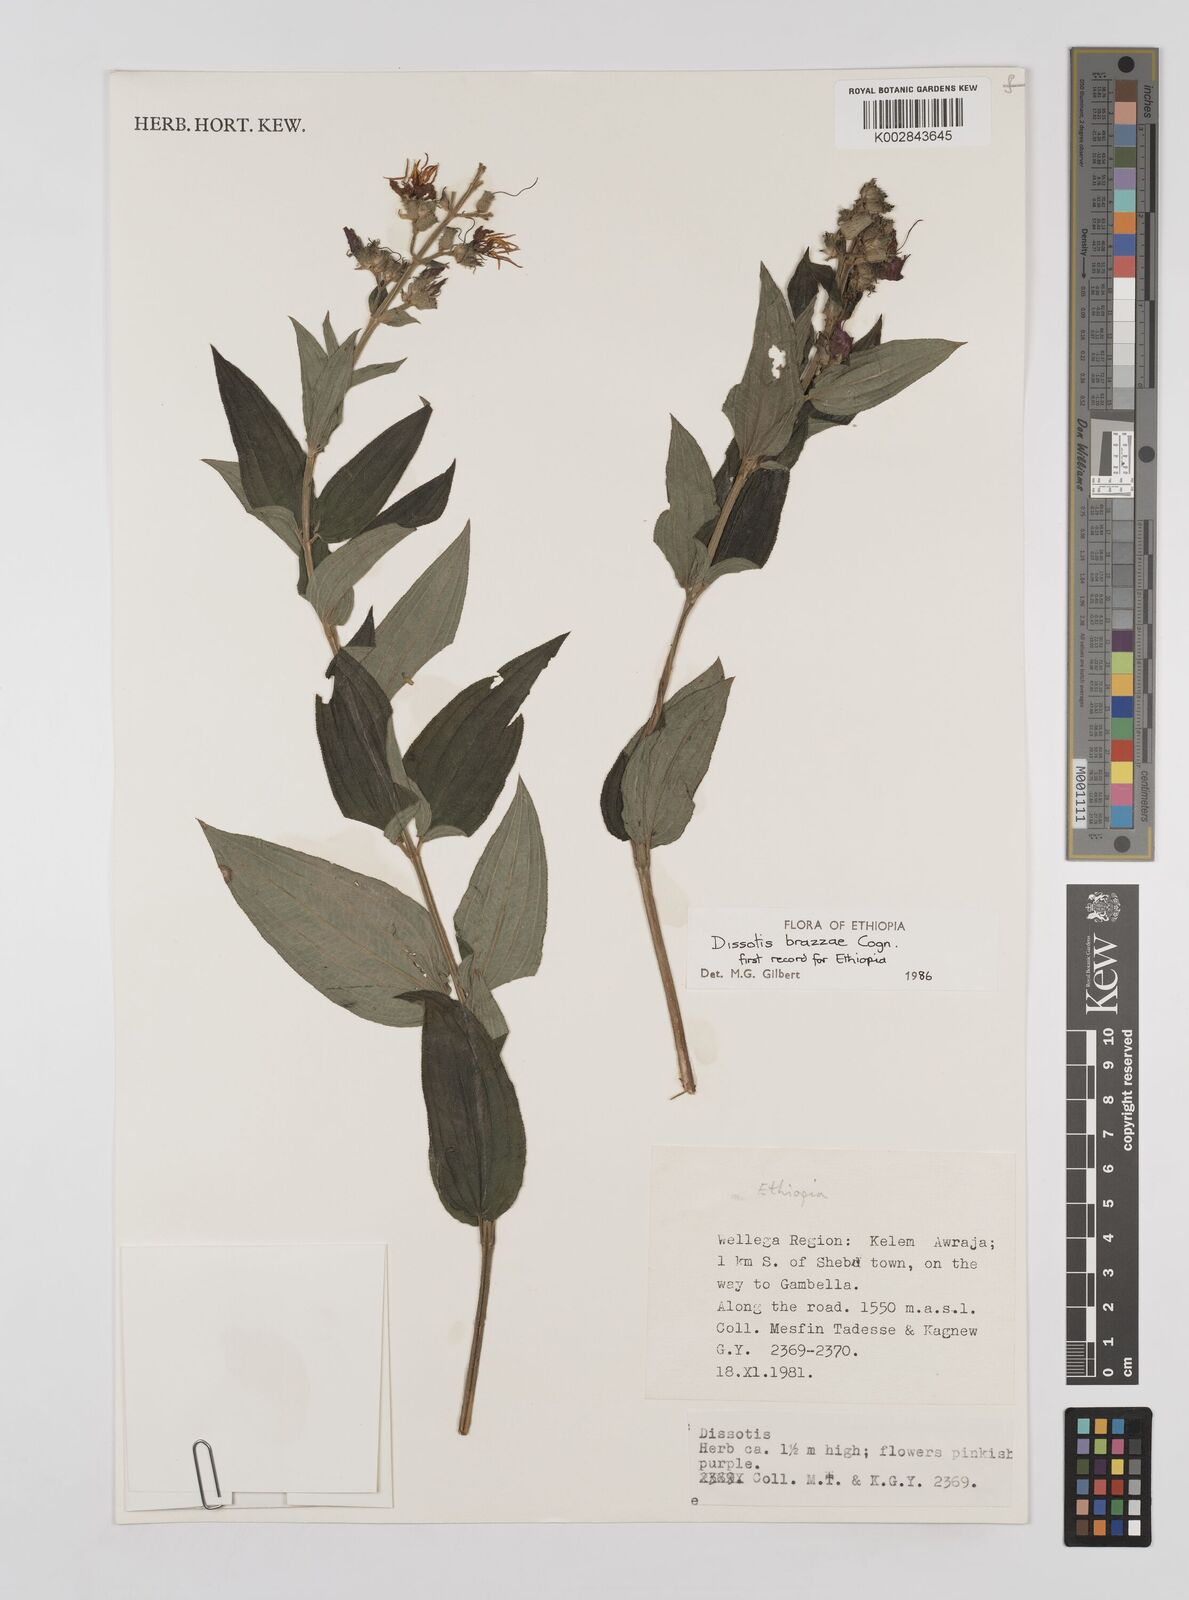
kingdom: Plantae
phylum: Tracheophyta
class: Magnoliopsida
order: Myrtales
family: Melastomataceae
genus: Dupineta
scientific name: Dupineta brazzae
